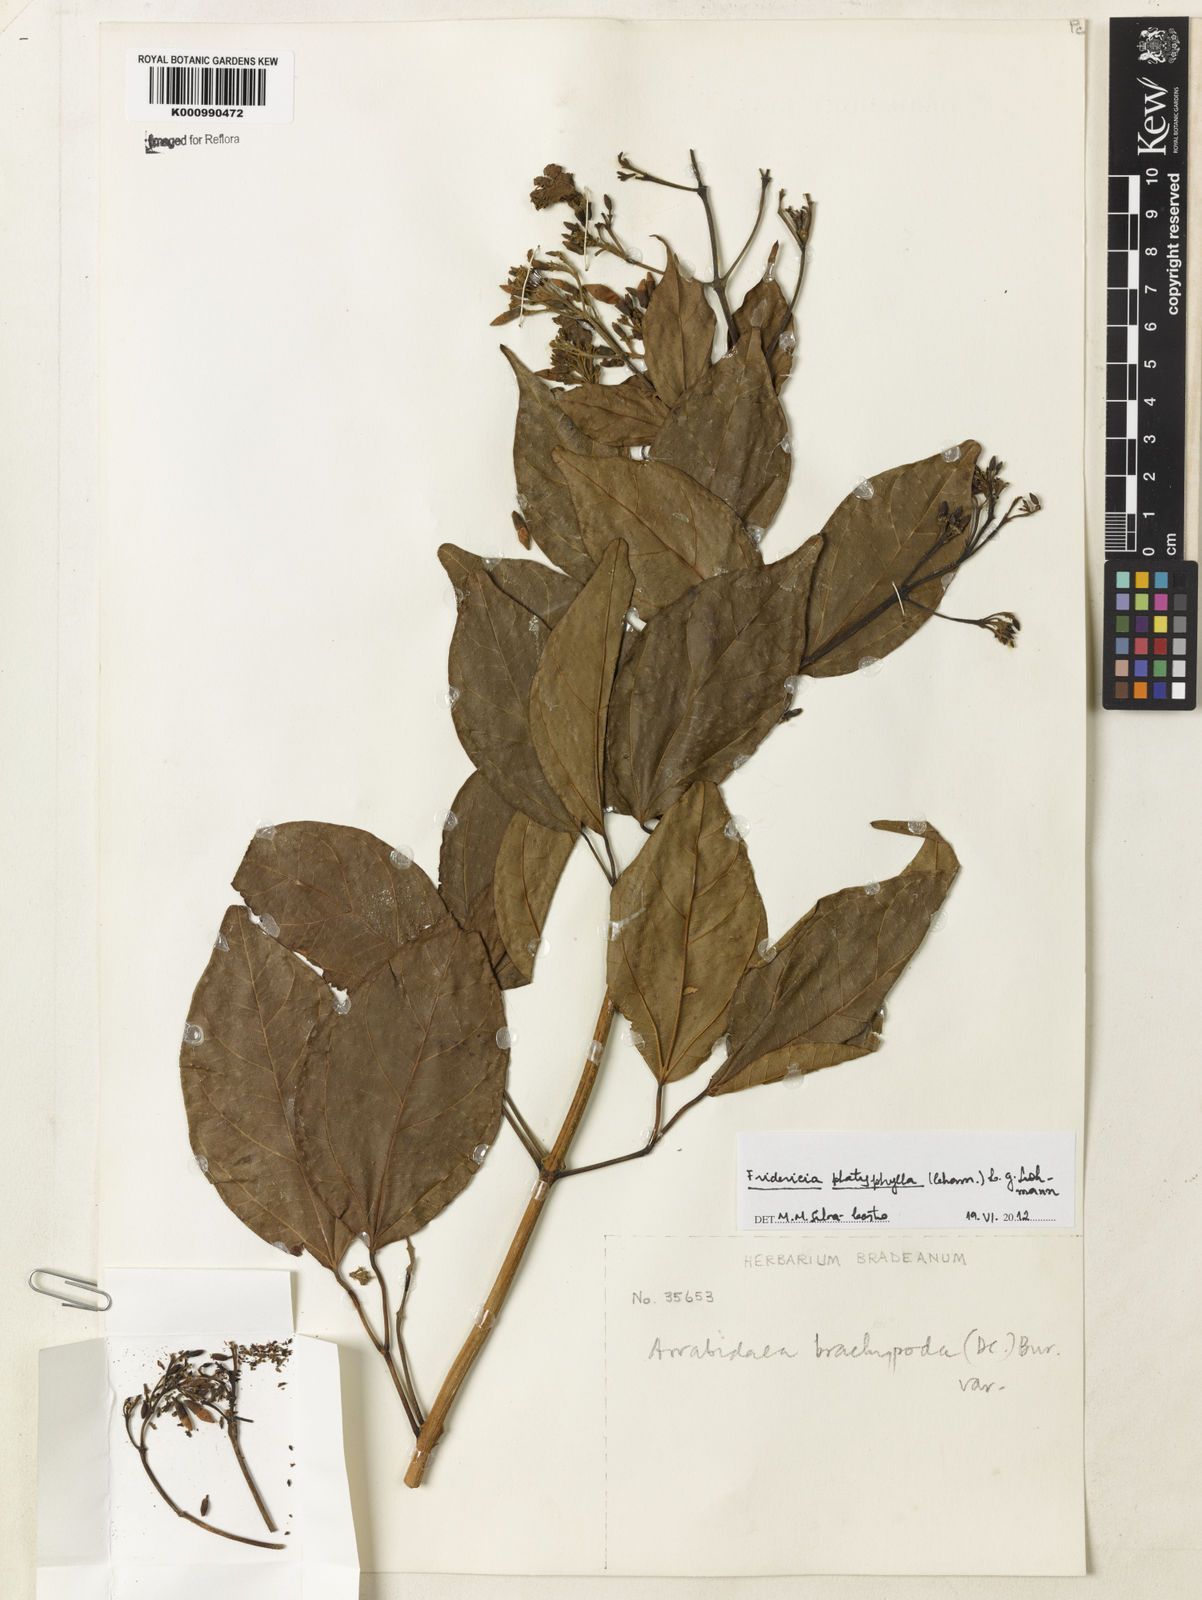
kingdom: Plantae
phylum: Tracheophyta
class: Magnoliopsida
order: Lamiales
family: Bignoniaceae
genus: Fridericia
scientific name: Fridericia platyphylla
